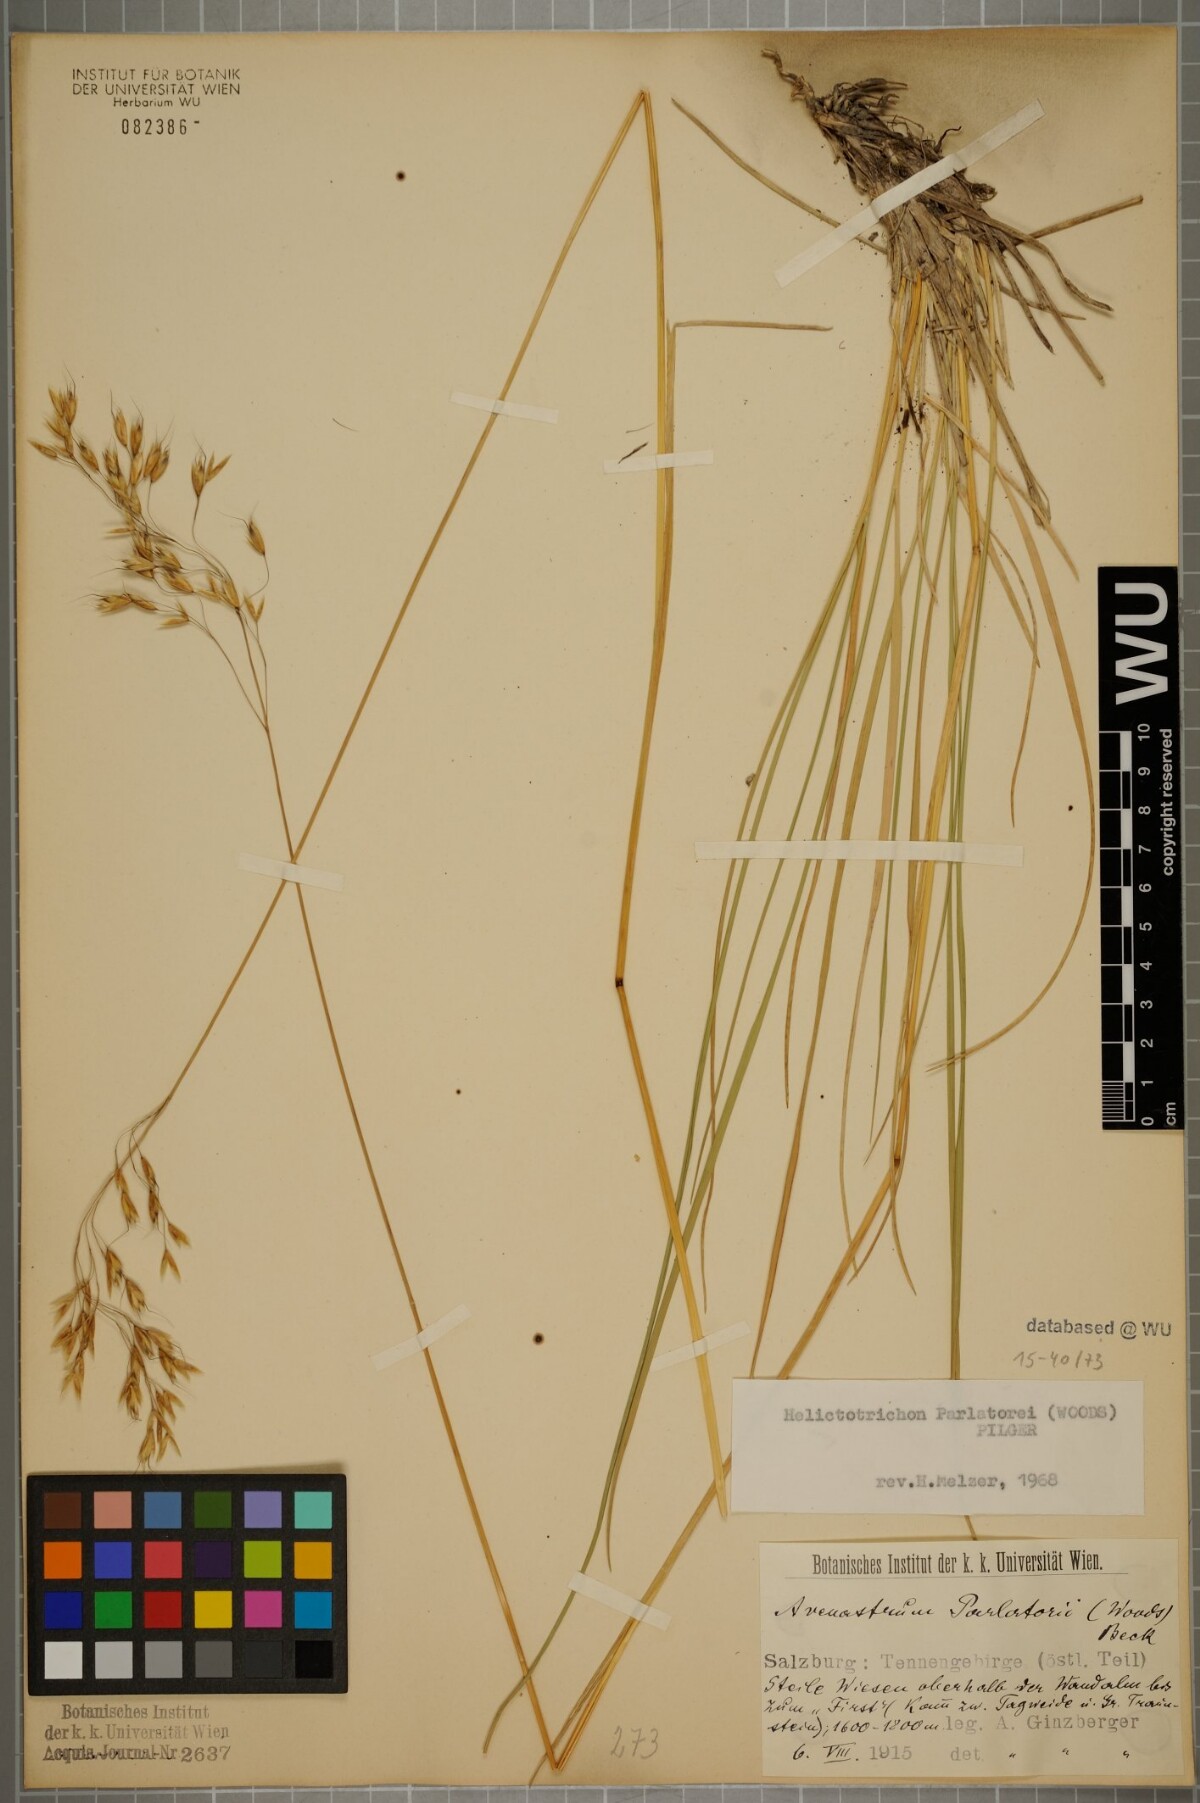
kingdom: Plantae
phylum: Tracheophyta
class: Liliopsida
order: Poales
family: Poaceae
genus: Helictotrichon
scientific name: Helictotrichon parlatorei
